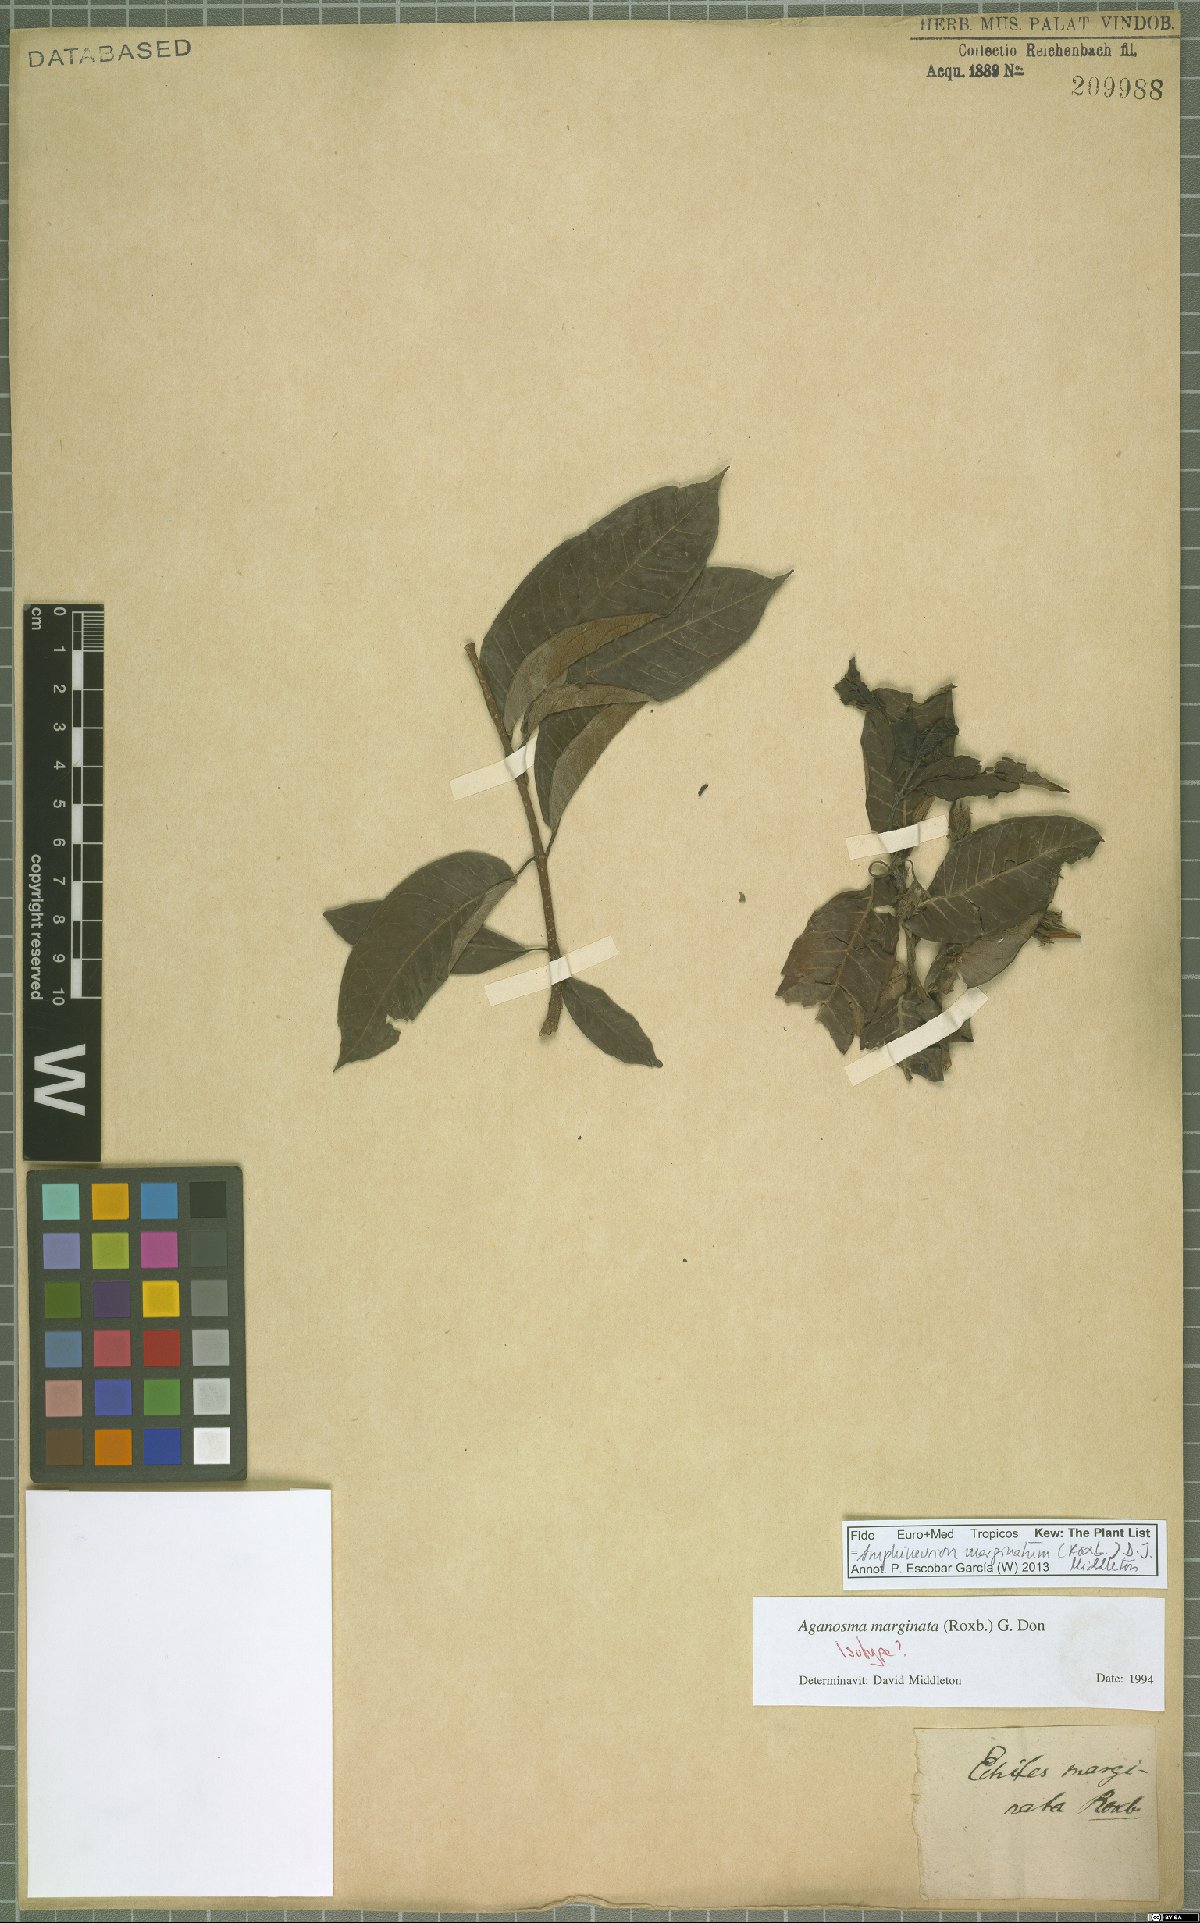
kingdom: Plantae
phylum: Tracheophyta
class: Magnoliopsida
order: Gentianales
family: Apocynaceae
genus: Amphineurion
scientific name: Amphineurion marginatum
